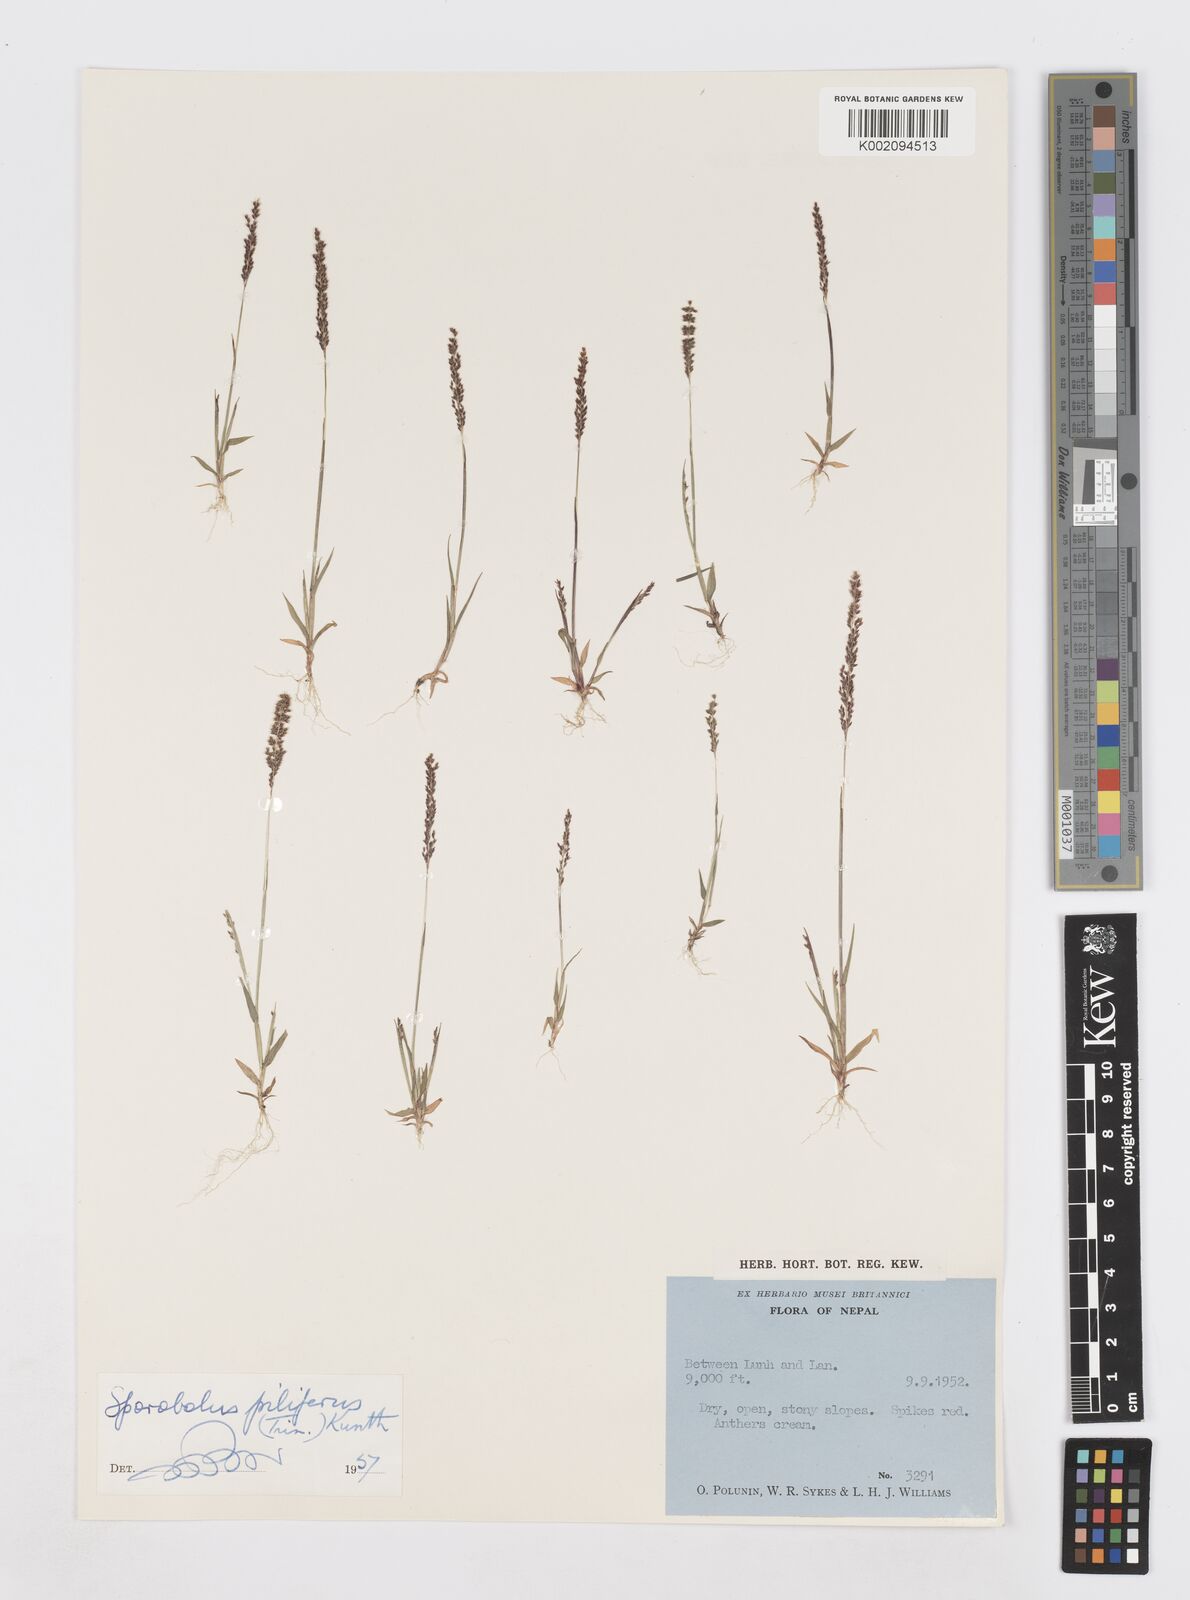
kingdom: Plantae
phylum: Tracheophyta
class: Liliopsida
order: Poales
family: Poaceae
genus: Sporobolus
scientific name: Sporobolus pilifer
